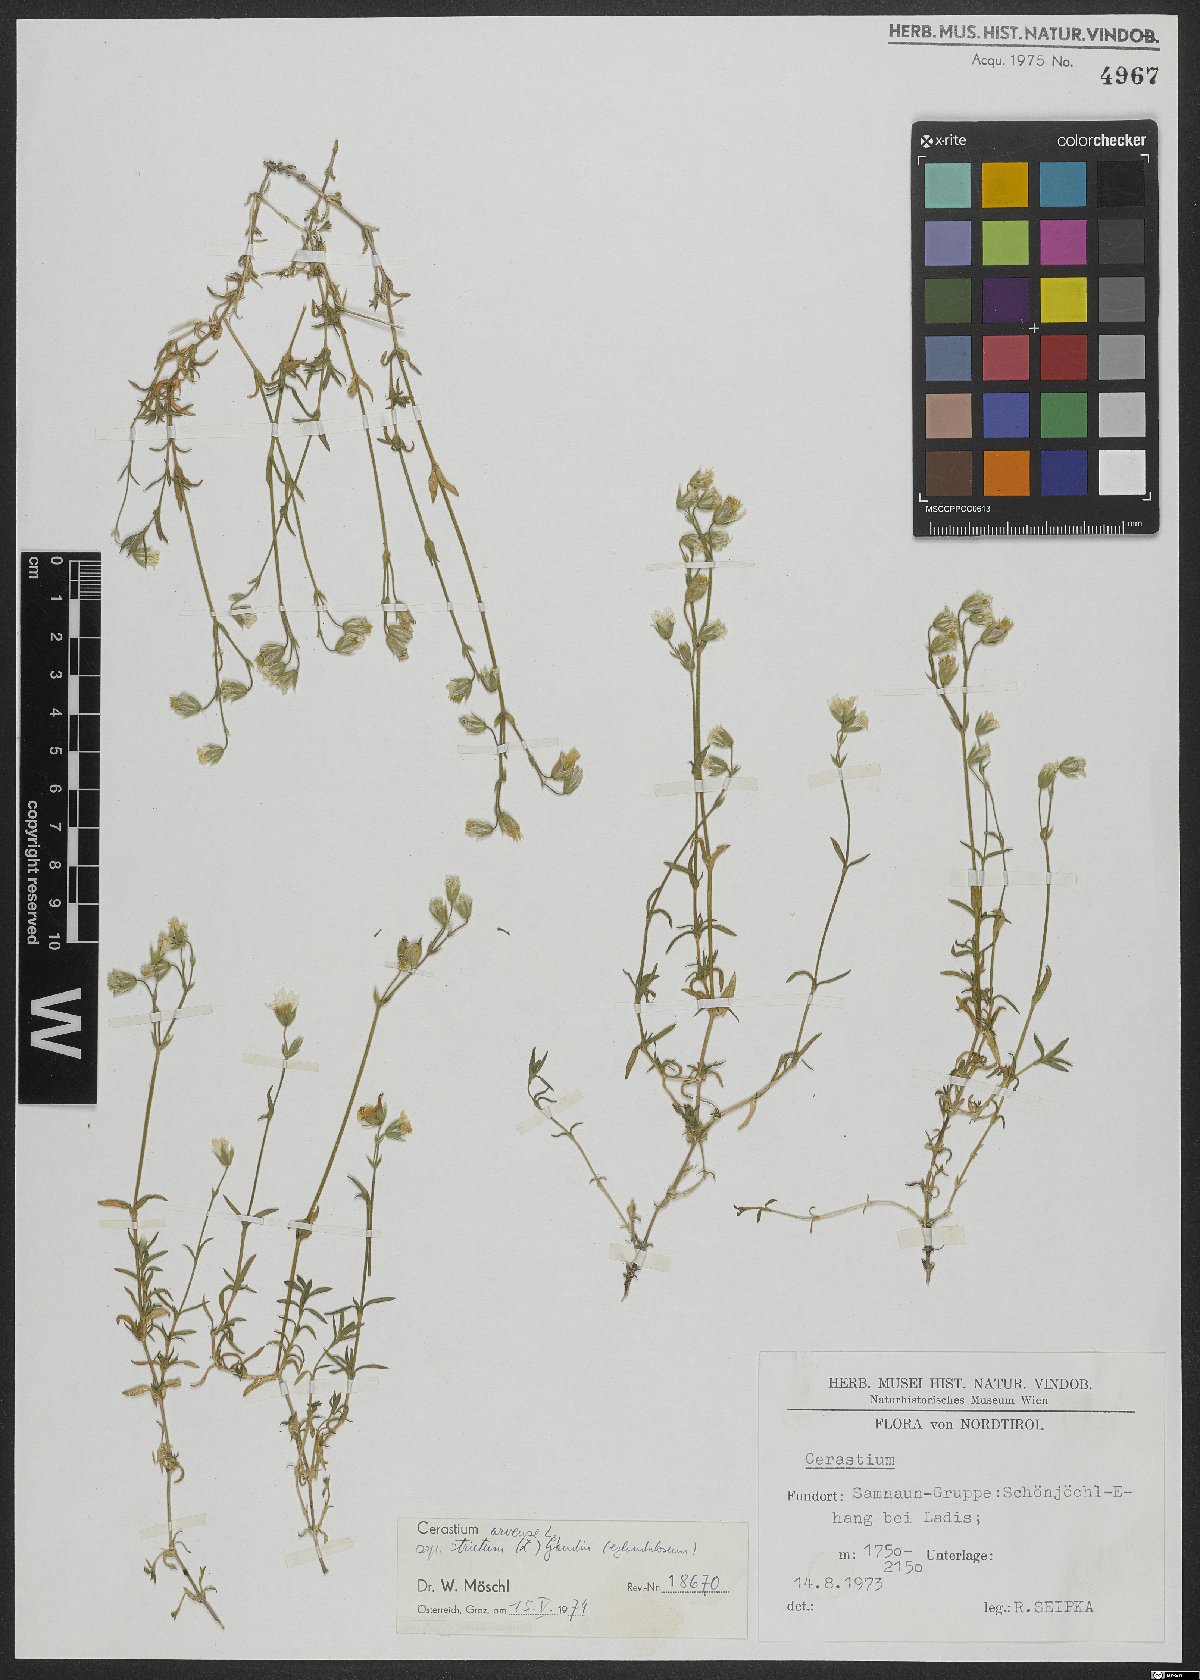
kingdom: Plantae
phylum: Tracheophyta
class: Magnoliopsida
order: Caryophyllales
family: Caryophyllaceae
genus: Cerastium
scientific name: Cerastium elongatum
